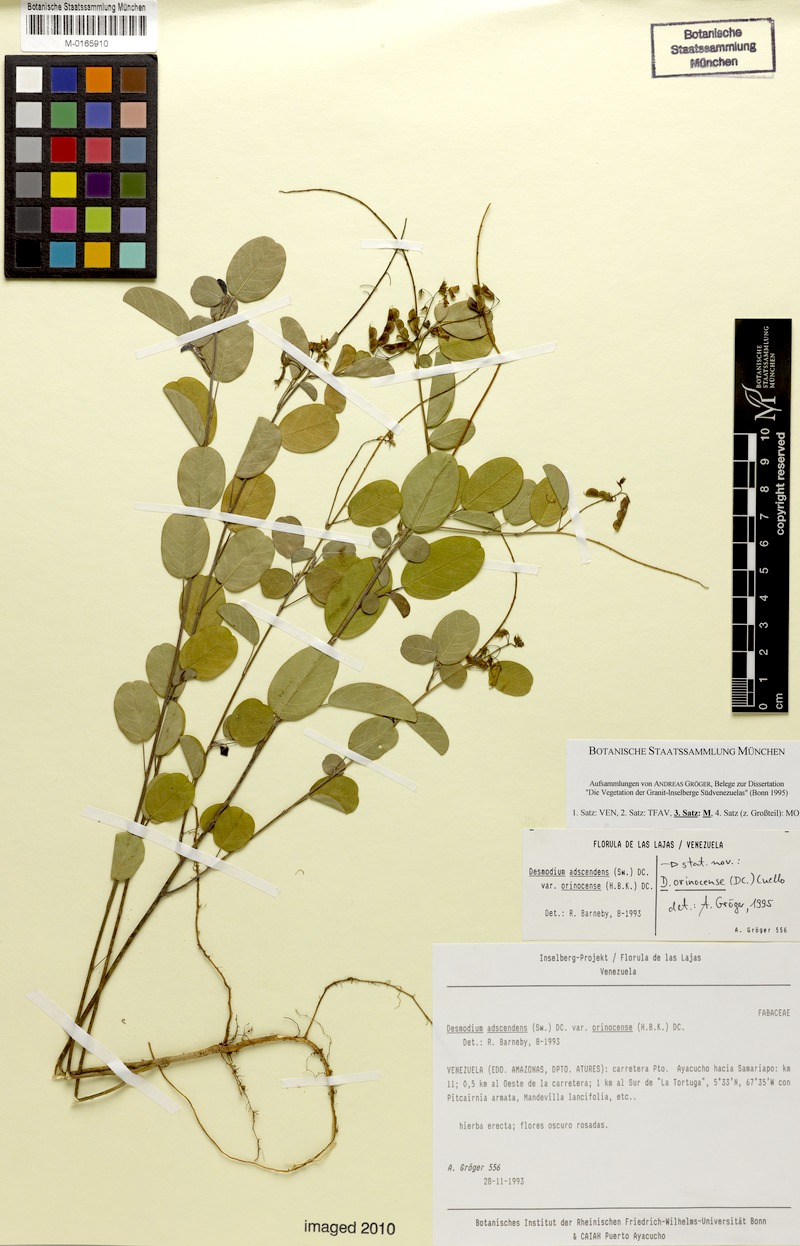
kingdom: Plantae
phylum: Tracheophyta
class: Magnoliopsida
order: Fabales
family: Fabaceae
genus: Grona
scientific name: Grona orinocensis
